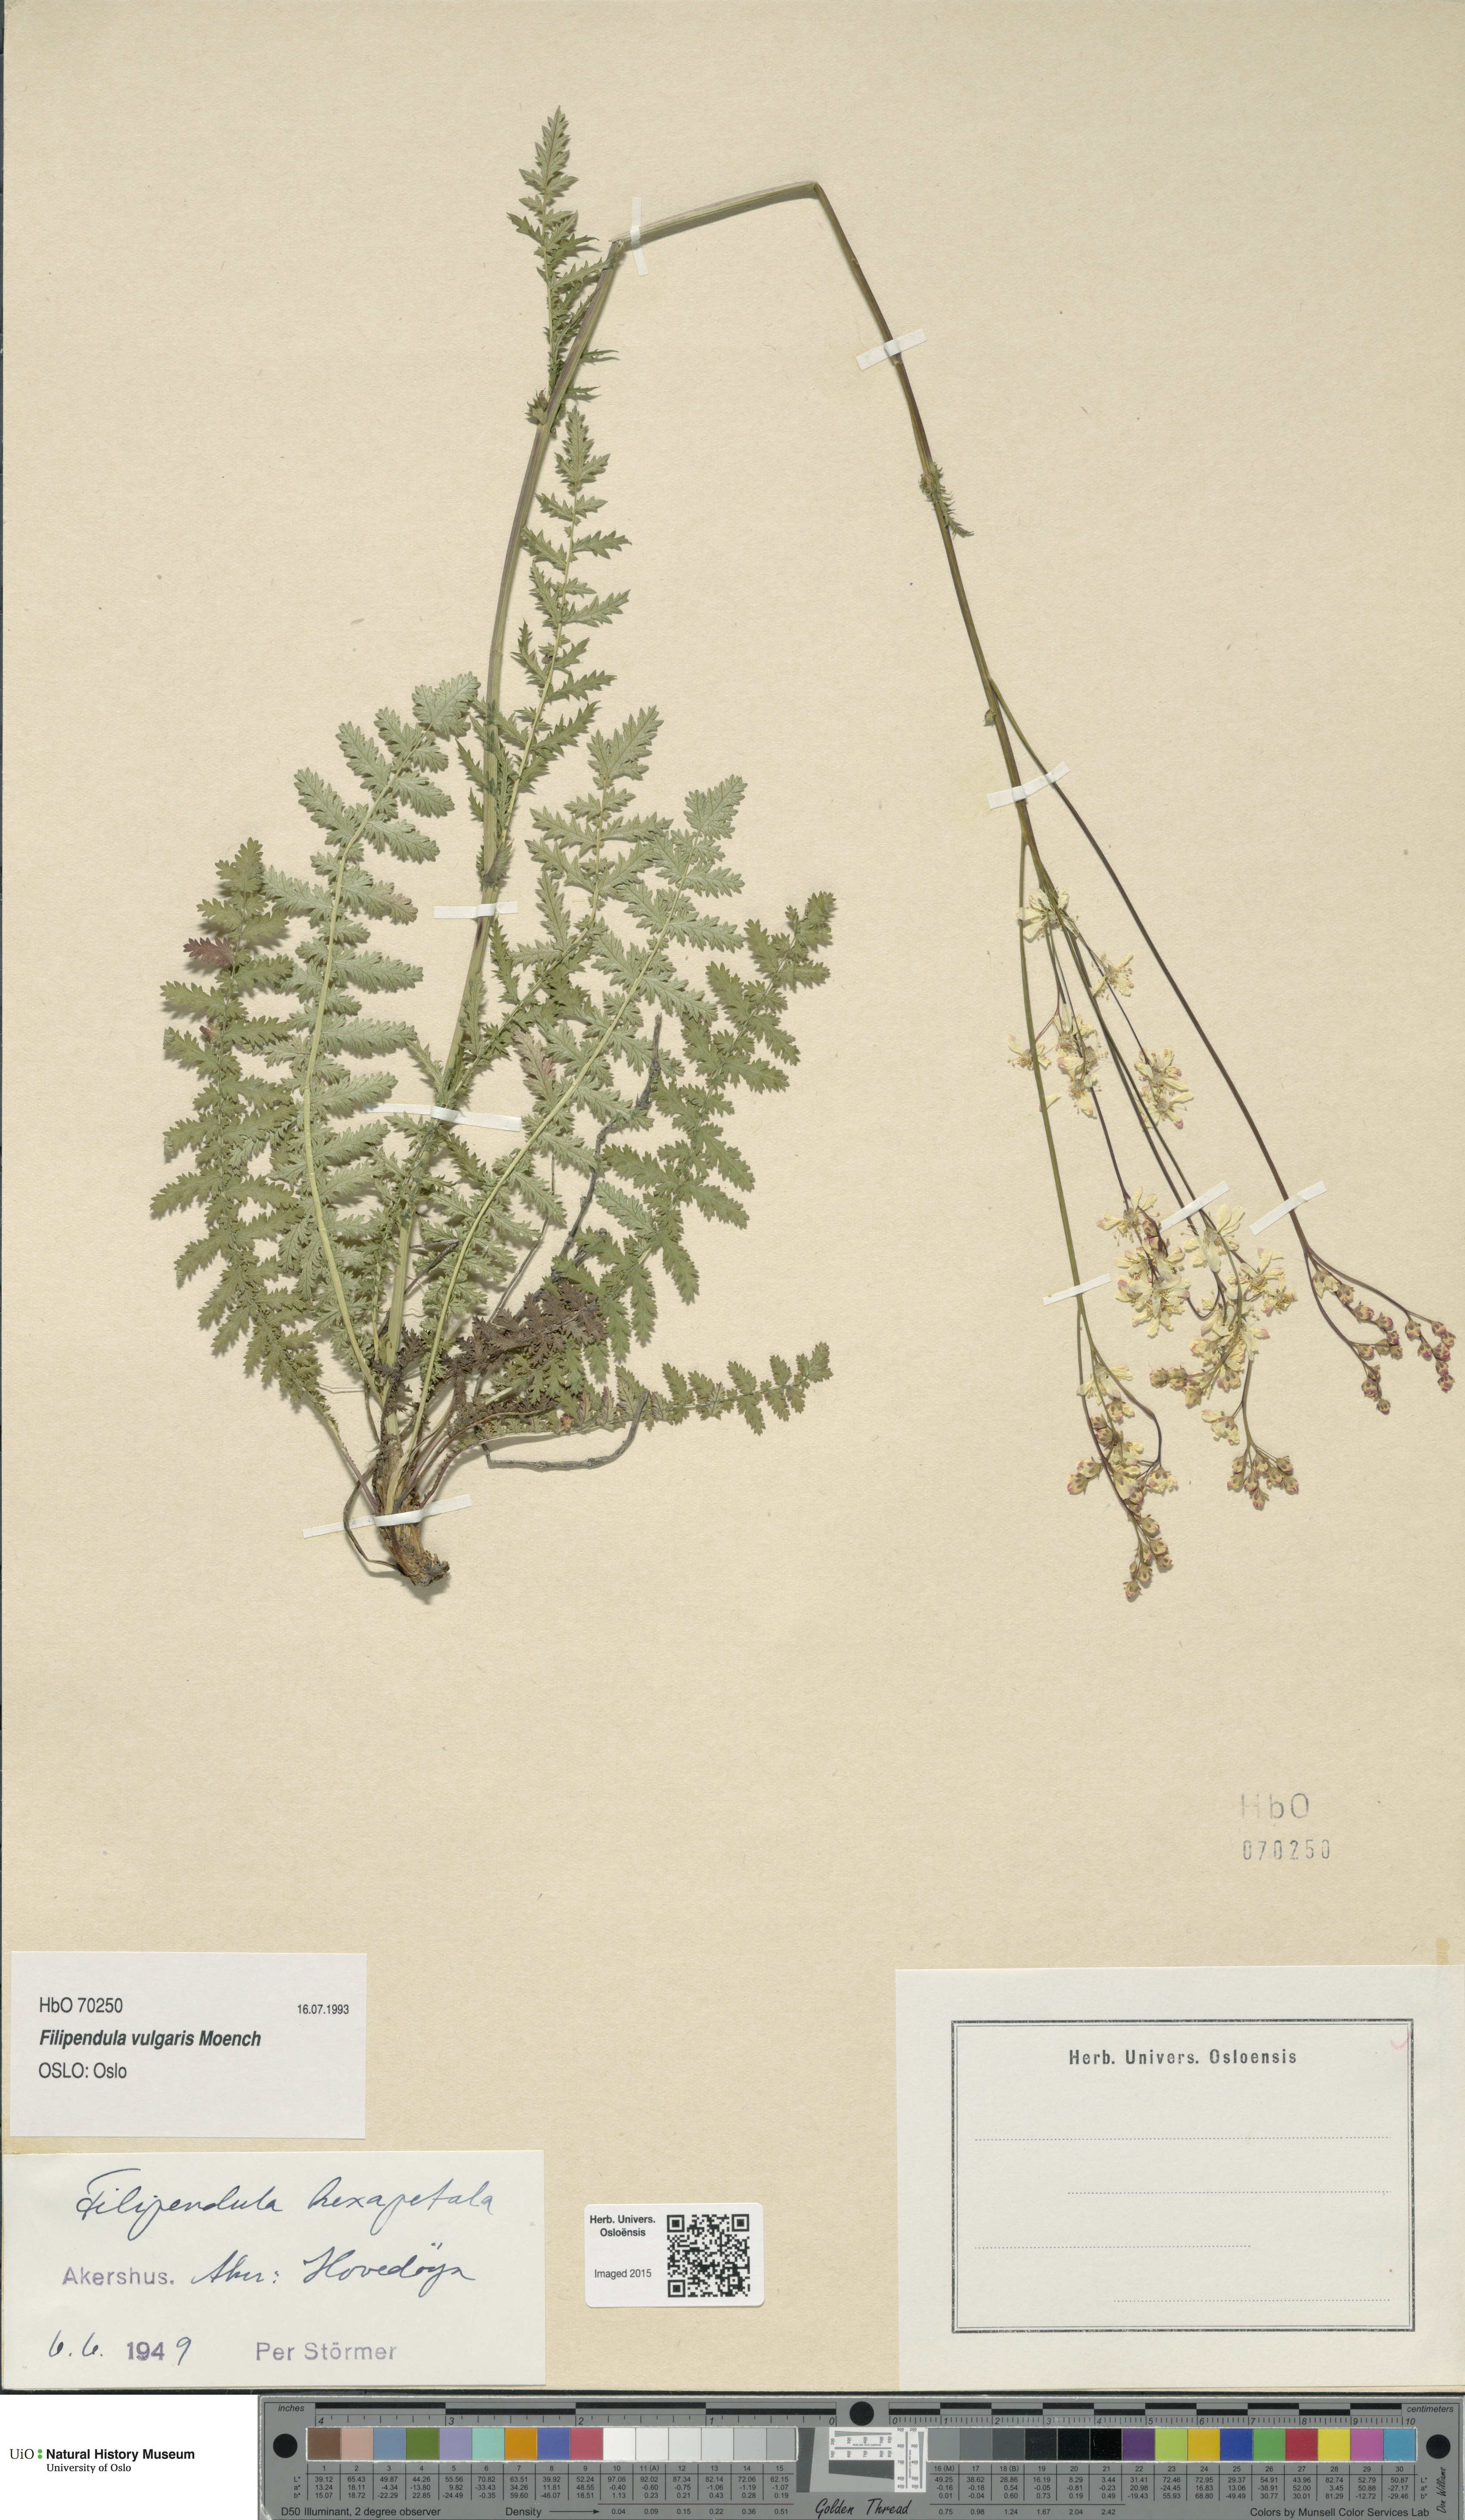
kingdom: Plantae
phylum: Tracheophyta
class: Magnoliopsida
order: Rosales
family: Rosaceae
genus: Filipendula
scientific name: Filipendula vulgaris
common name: Dropwort
